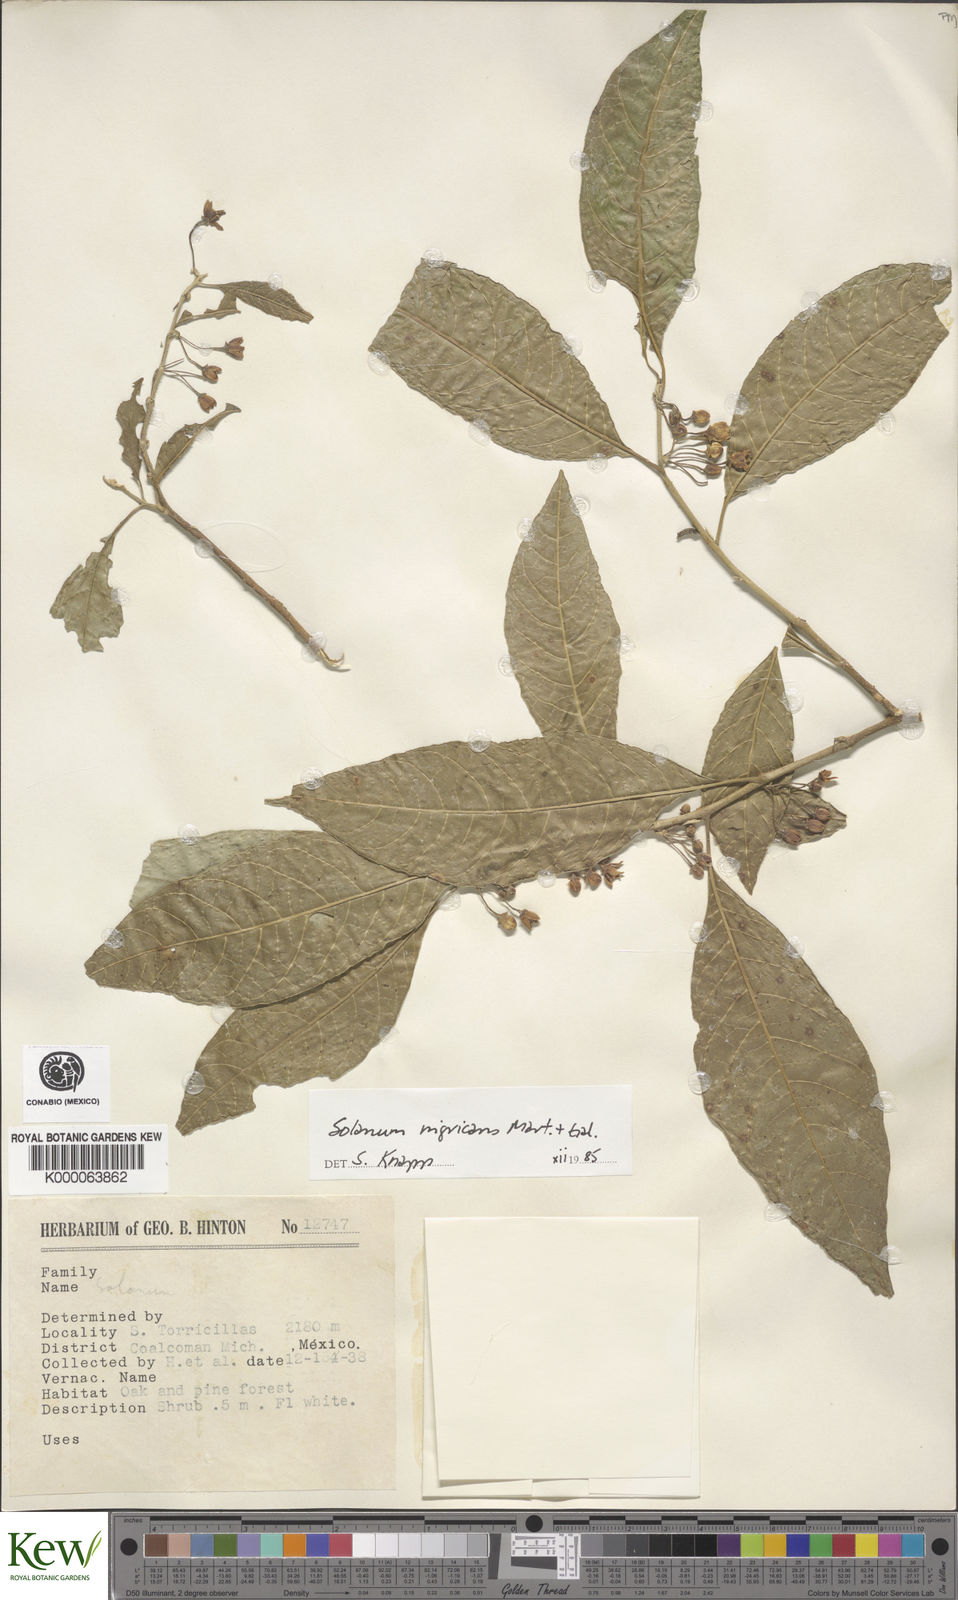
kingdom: Plantae
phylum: Tracheophyta
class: Magnoliopsida
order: Solanales
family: Solanaceae
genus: Solanum
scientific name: Solanum nigricans
